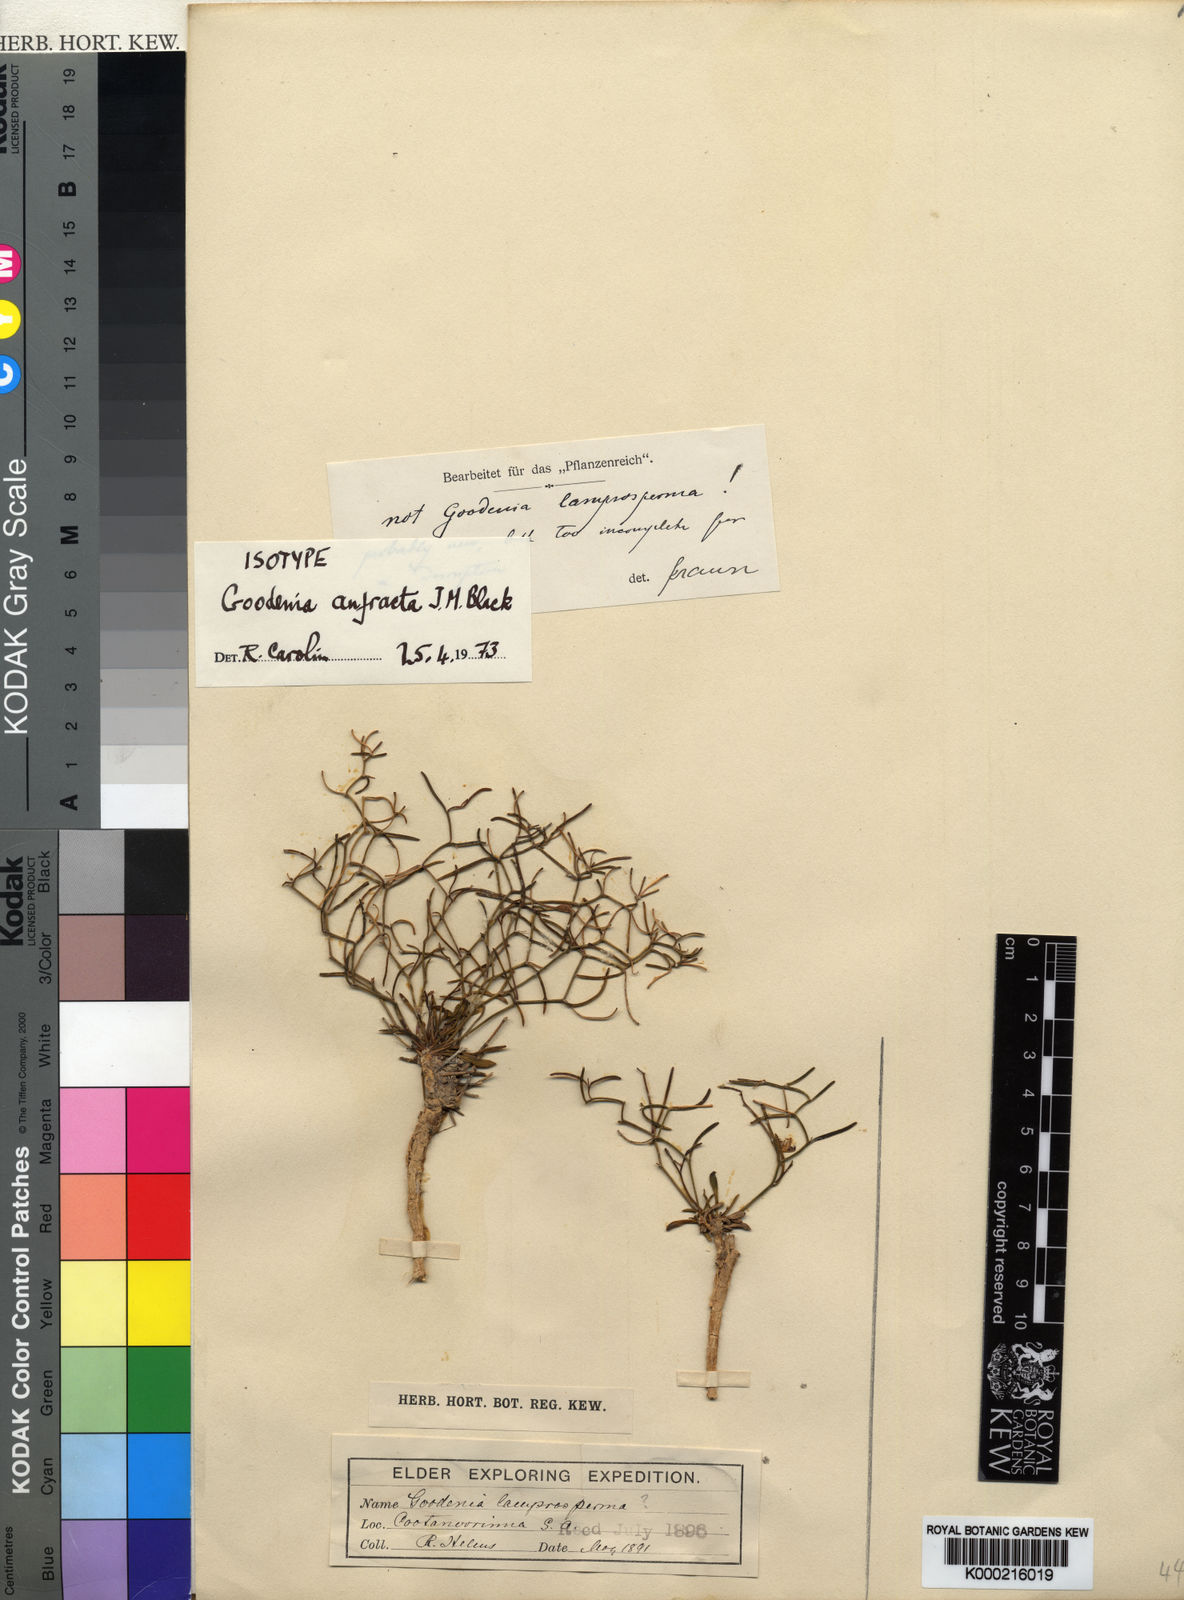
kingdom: Plantae
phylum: Tracheophyta
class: Magnoliopsida
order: Asterales
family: Goodeniaceae
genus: Goodenia
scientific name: Goodenia anfracta
